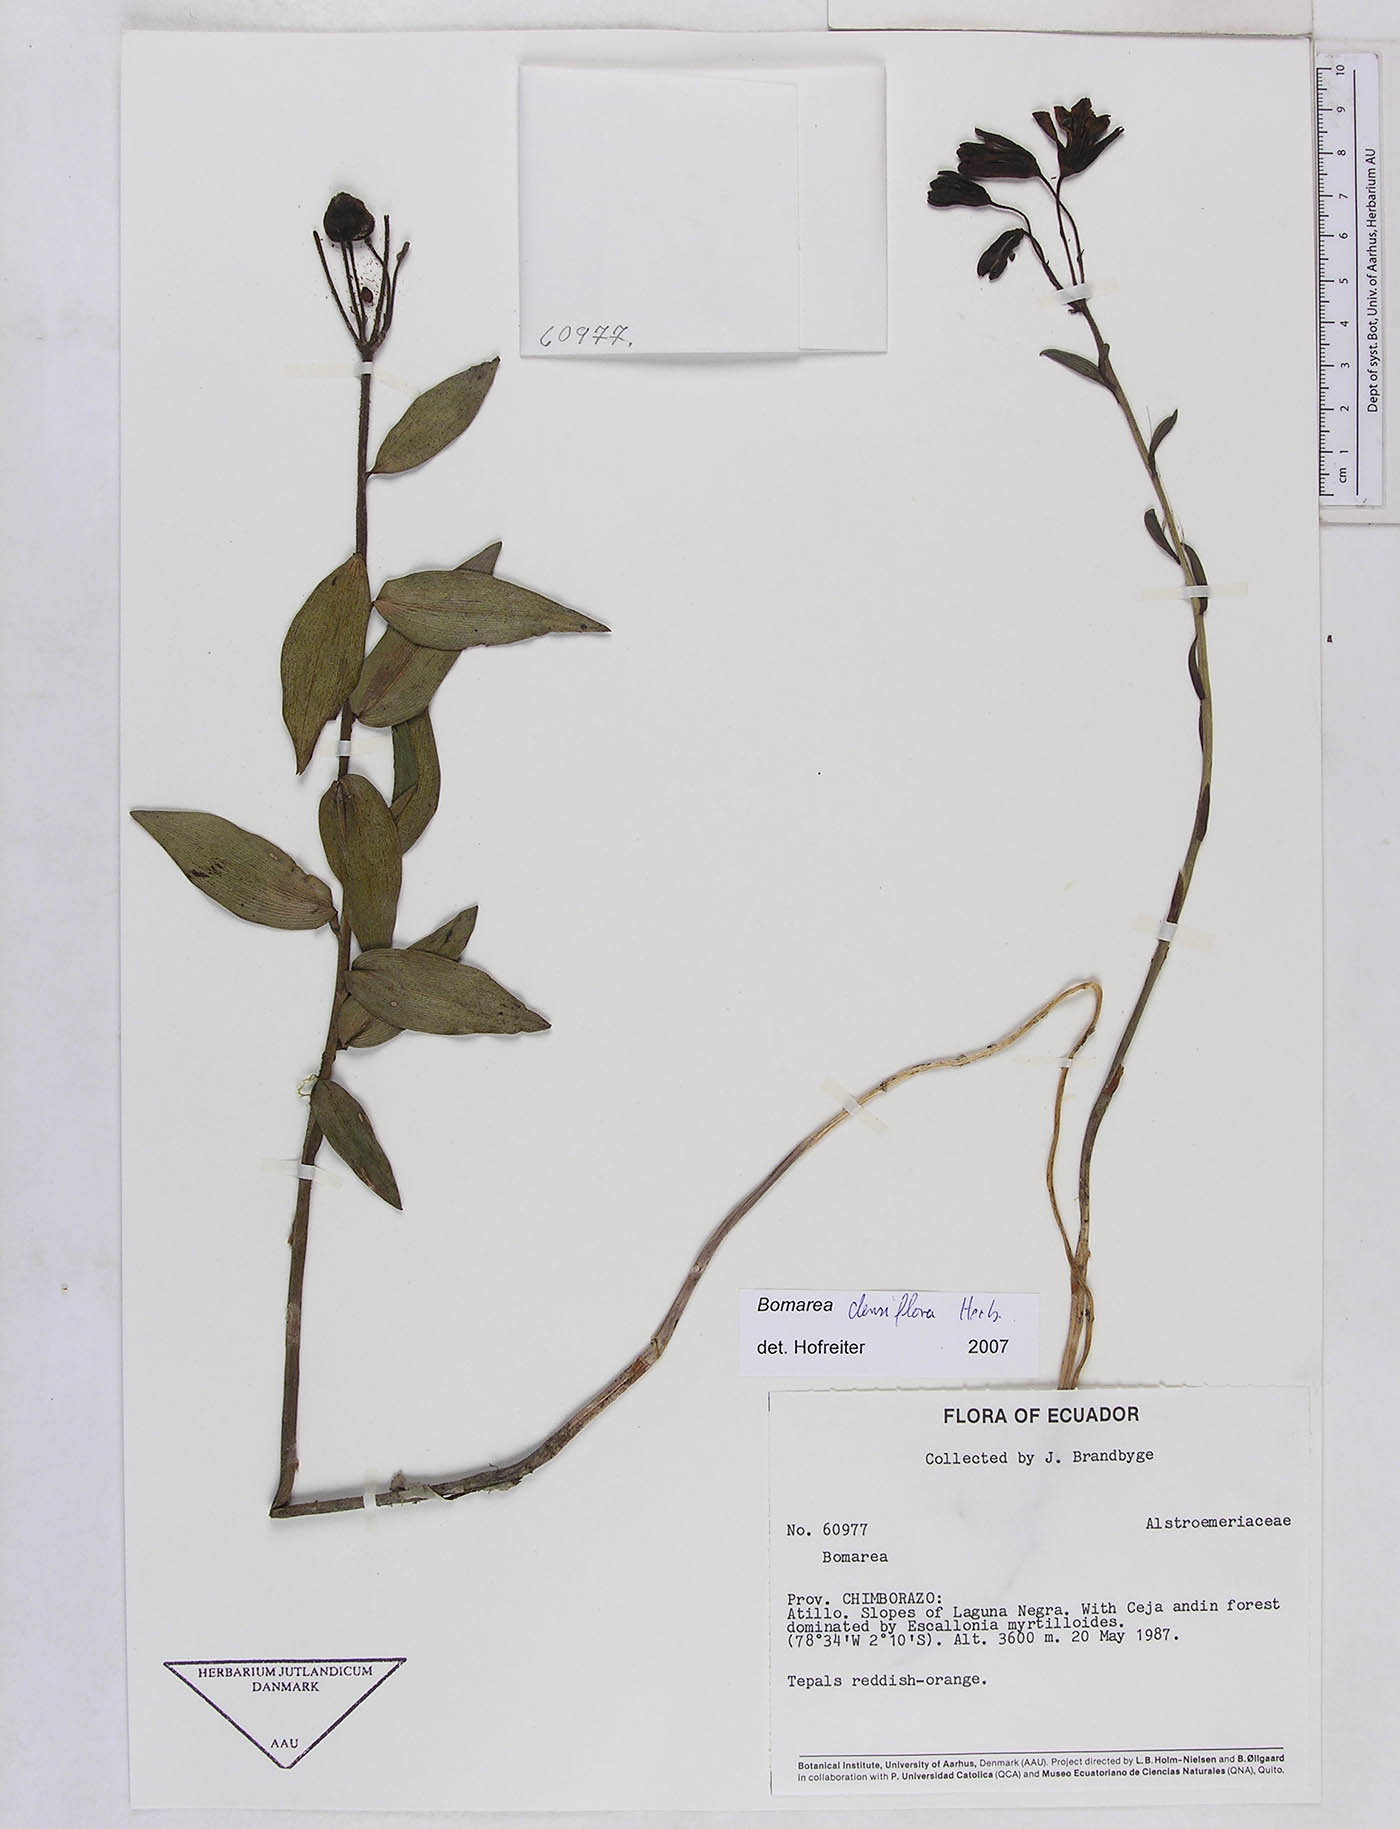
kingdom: Plantae
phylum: Tracheophyta
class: Liliopsida
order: Liliales
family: Alstroemeriaceae
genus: Bomarea
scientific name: Bomarea densiflora
